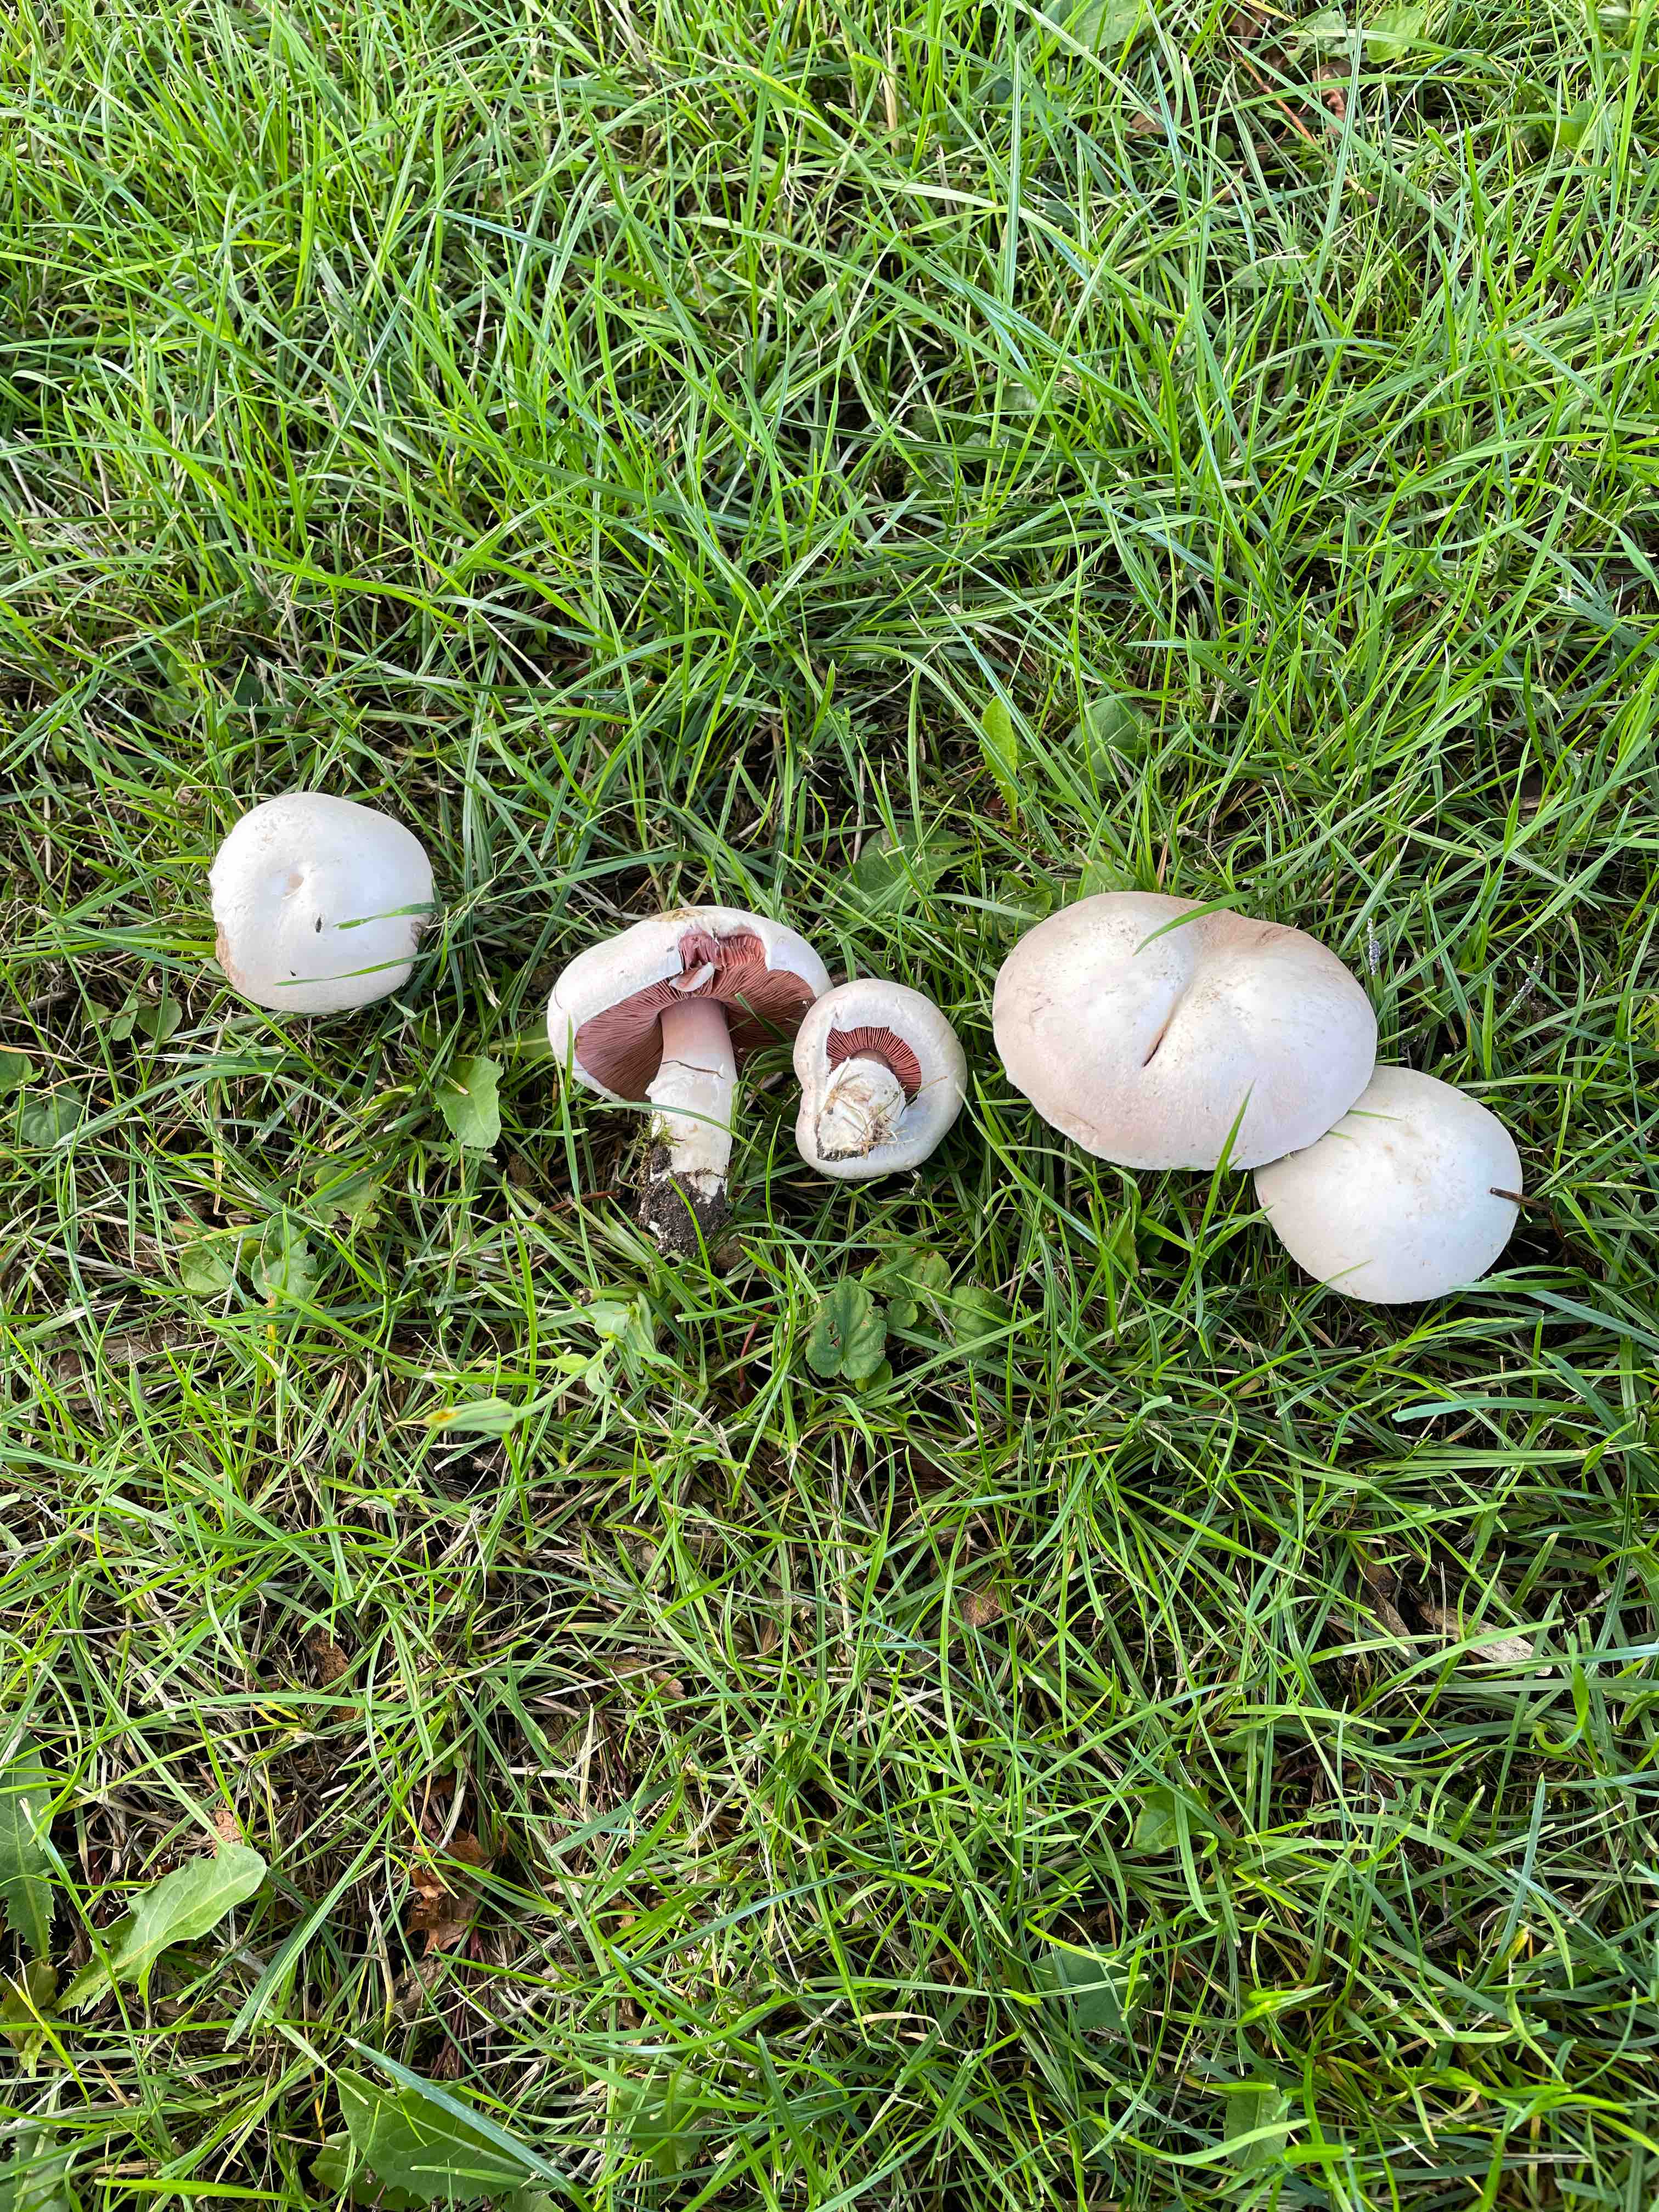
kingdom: Fungi
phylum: Basidiomycota
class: Agaricomycetes
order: Agaricales
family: Agaricaceae
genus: Agaricus
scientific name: Agaricus campestris
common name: mark-champignon
